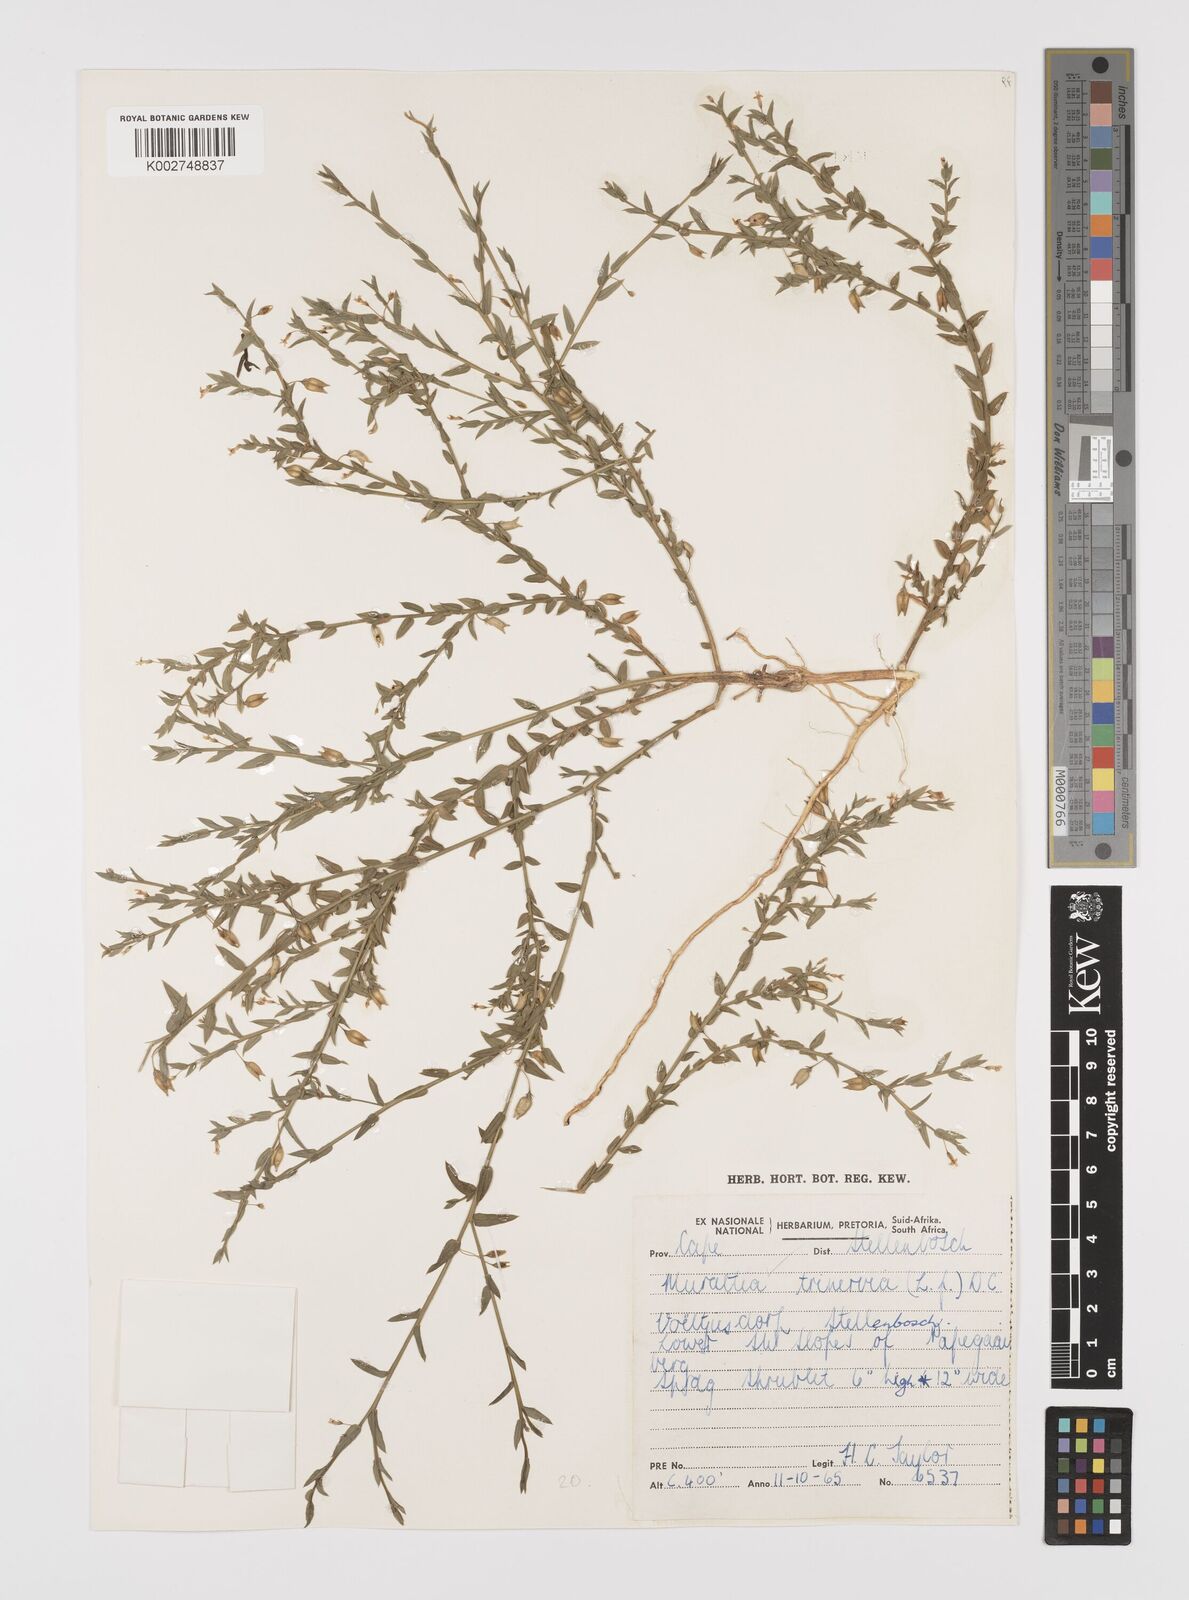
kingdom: Plantae
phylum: Tracheophyta
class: Magnoliopsida
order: Fabales
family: Polygalaceae
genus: Muraltia
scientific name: Muraltia trinervia
